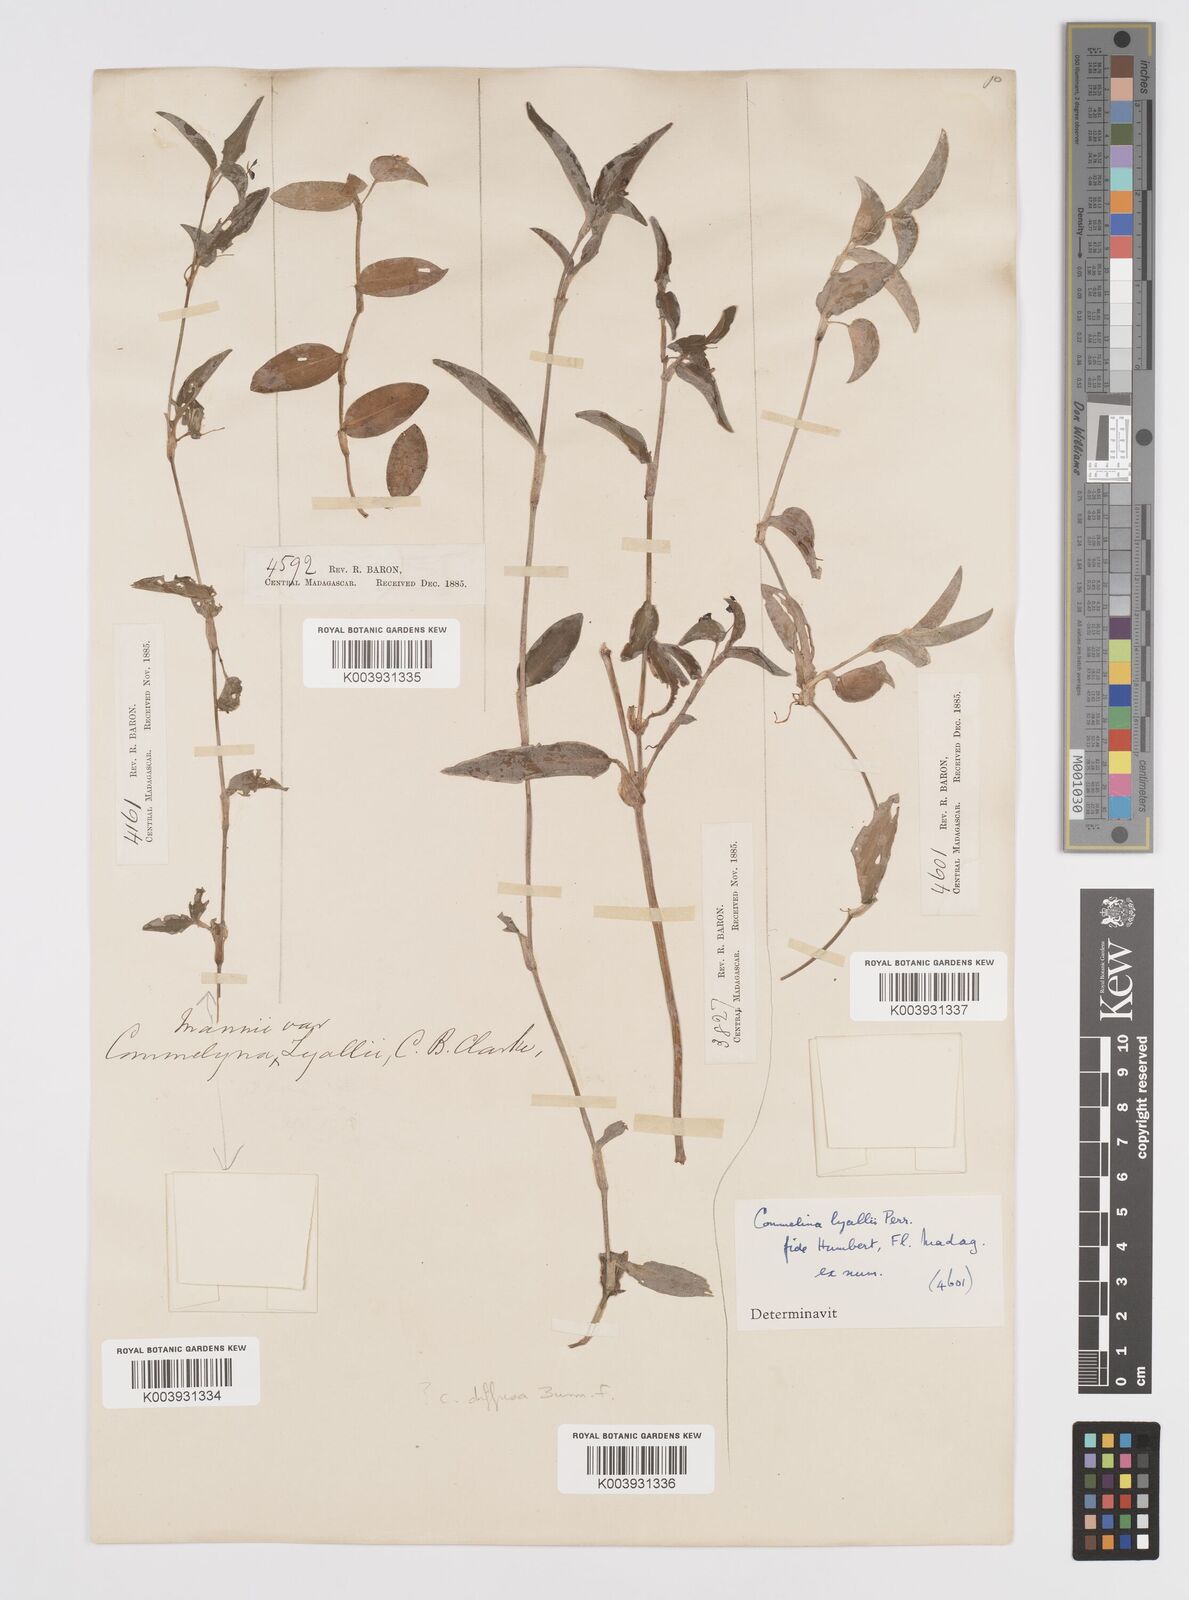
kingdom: Plantae
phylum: Tracheophyta
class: Liliopsida
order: Commelinales
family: Commelinaceae
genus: Commelina
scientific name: Commelina africana
